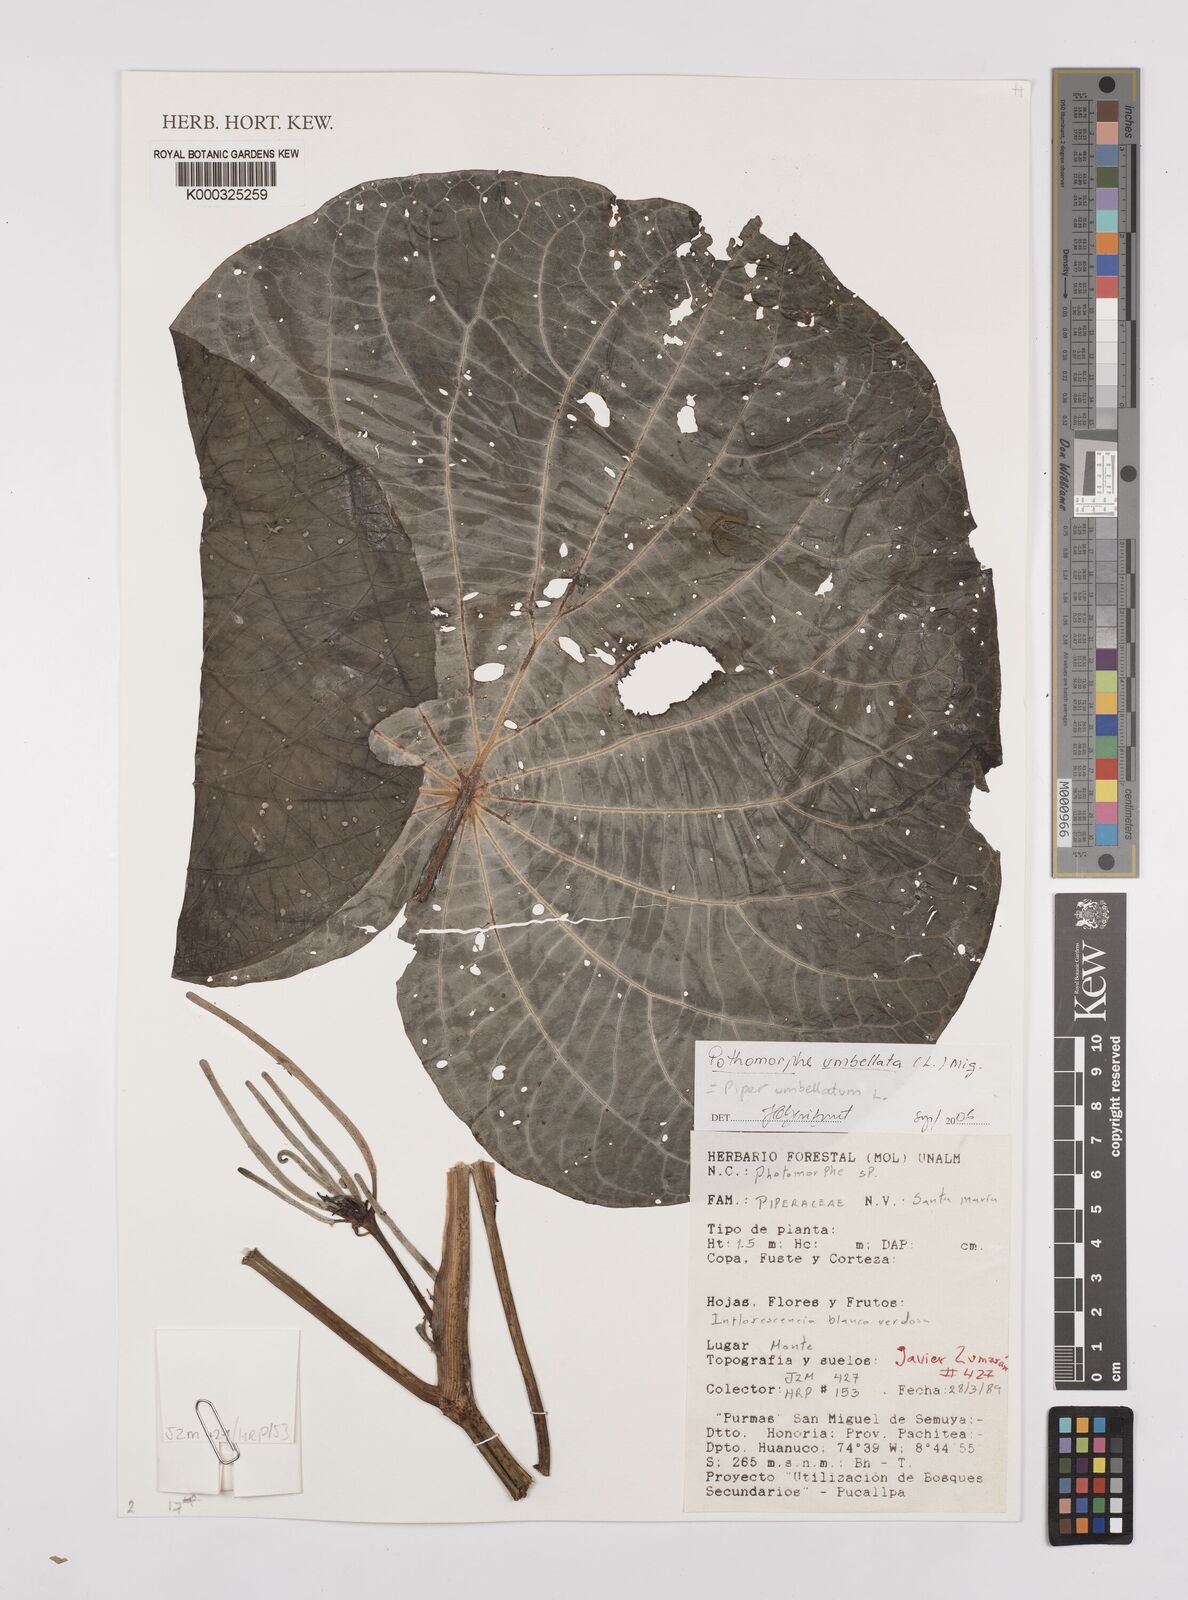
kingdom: Plantae
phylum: Tracheophyta
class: Magnoliopsida
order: Piperales
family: Piperaceae
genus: Piper
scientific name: Piper umbellatum
